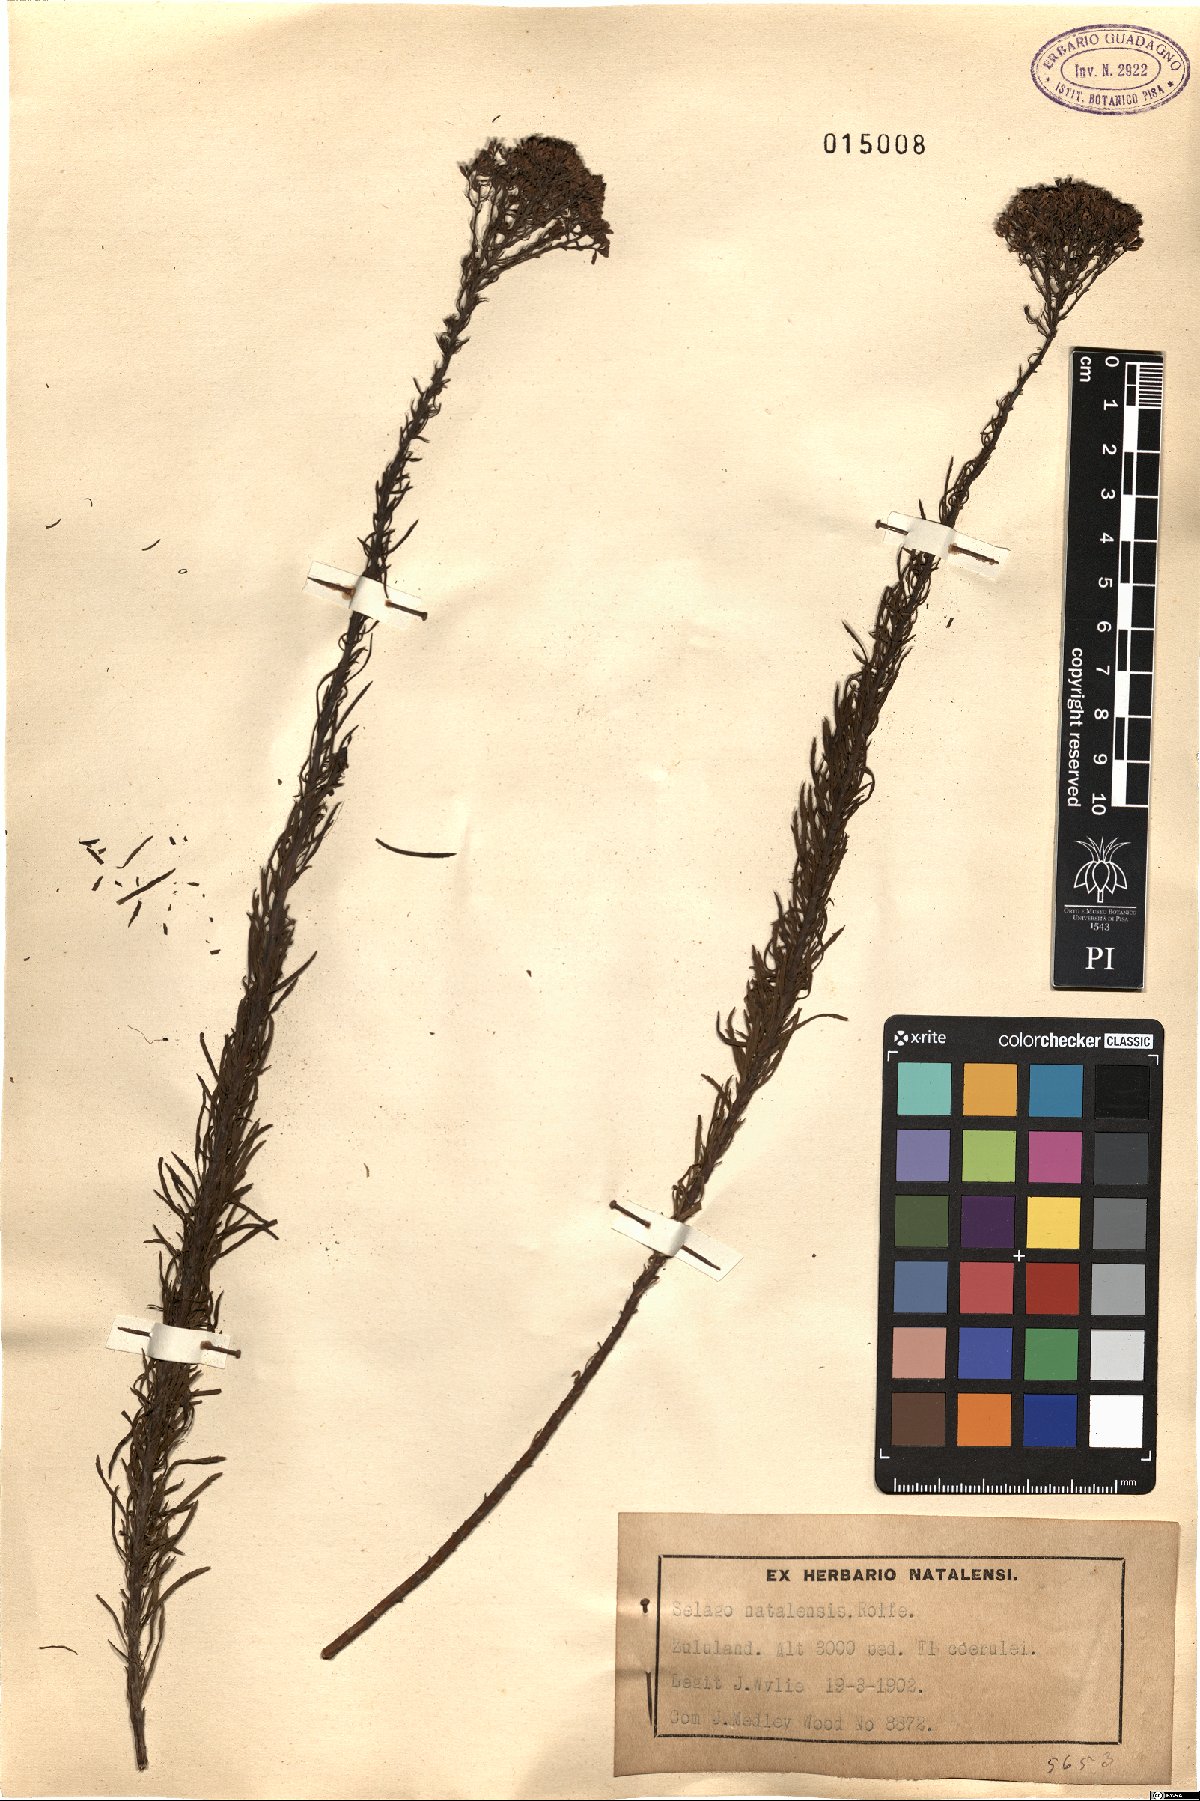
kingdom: Plantae
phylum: Tracheophyta
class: Magnoliopsida
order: Lamiales
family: Scrophulariaceae
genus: Tetraselago
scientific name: Tetraselago natalensis
